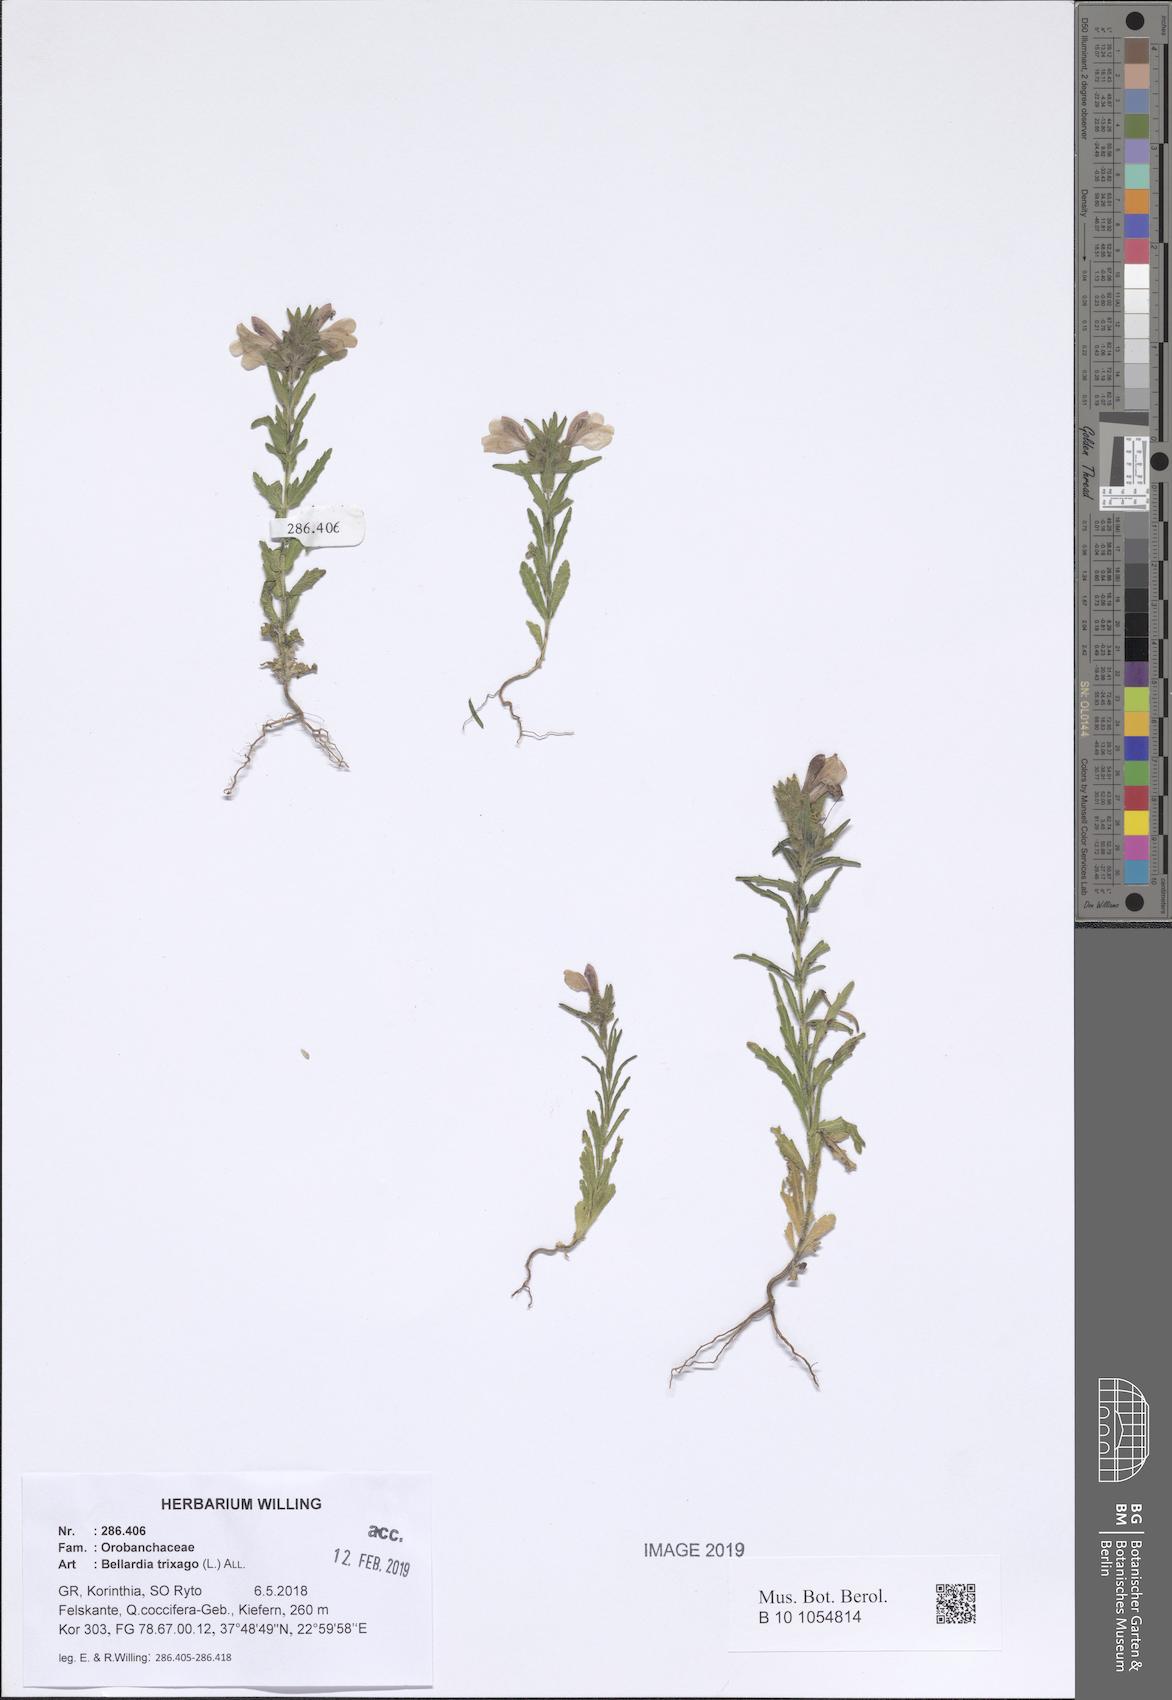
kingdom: Plantae
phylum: Tracheophyta
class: Magnoliopsida
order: Lamiales
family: Orobanchaceae
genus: Bellardia
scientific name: Bellardia trixago
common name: Mediterranean lineseed
